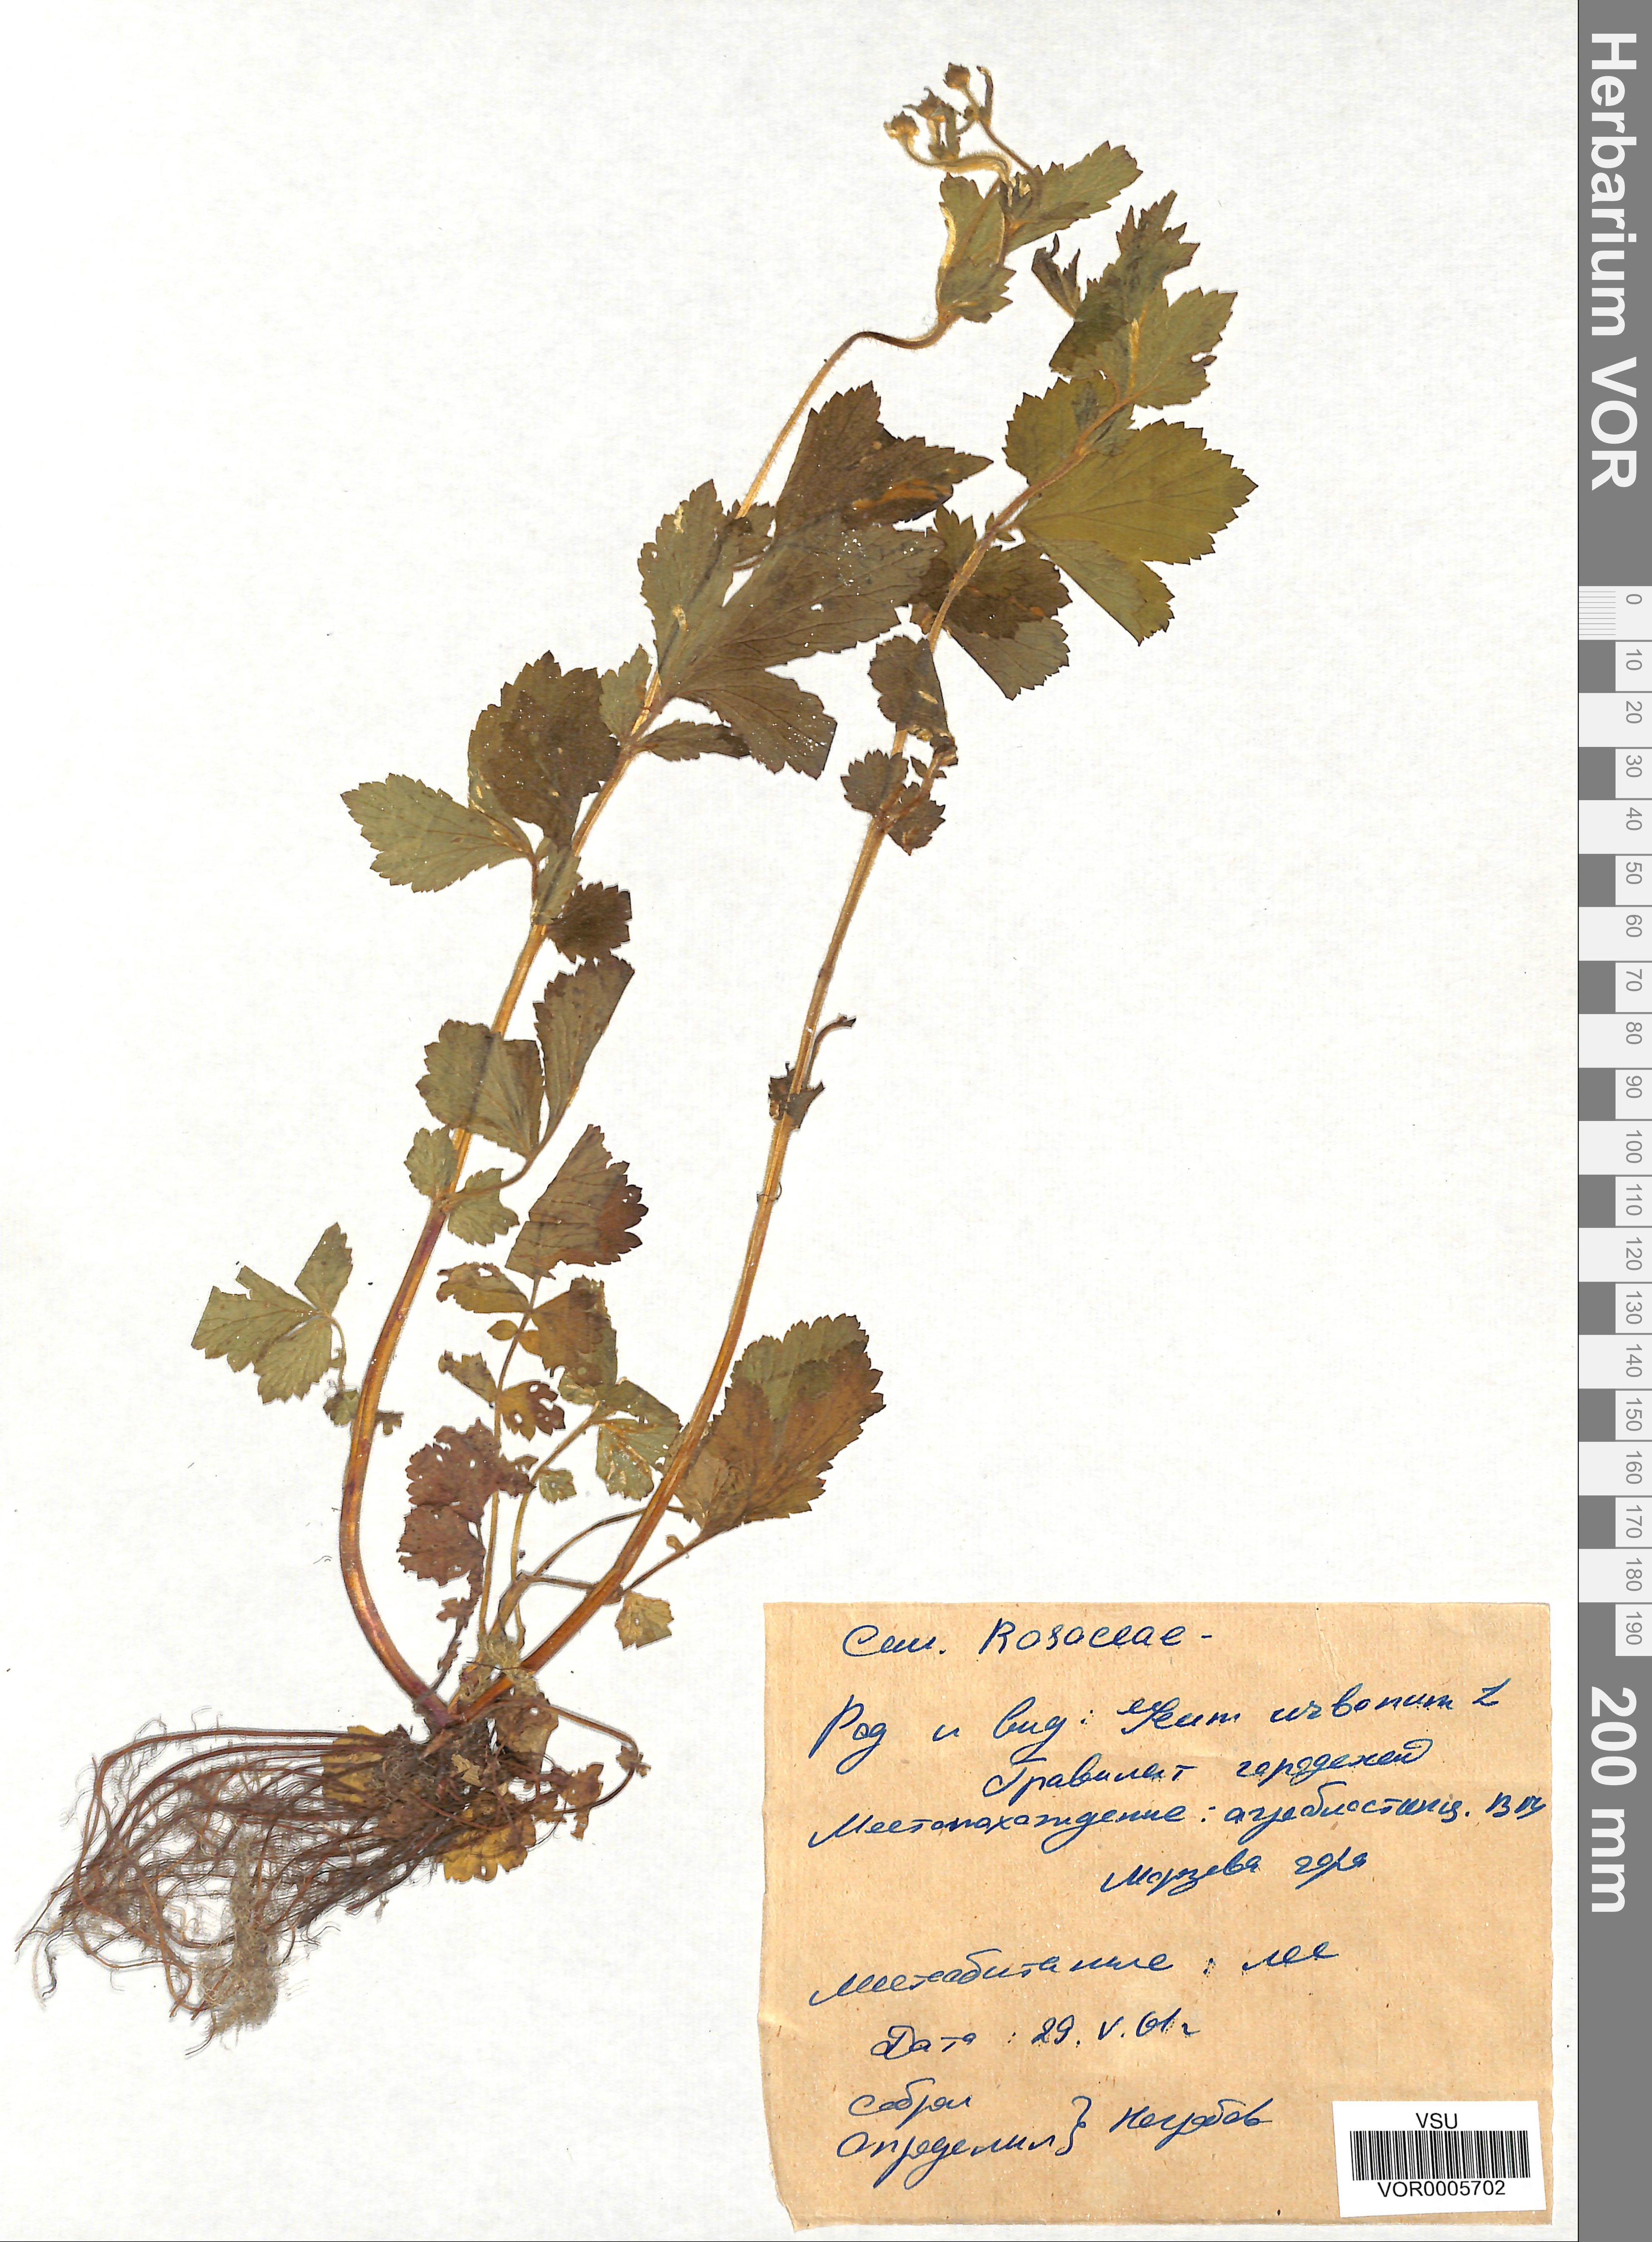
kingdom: Plantae
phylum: Tracheophyta
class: Magnoliopsida
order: Rosales
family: Rosaceae
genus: Geum
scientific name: Geum urbanum
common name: Wood avens
